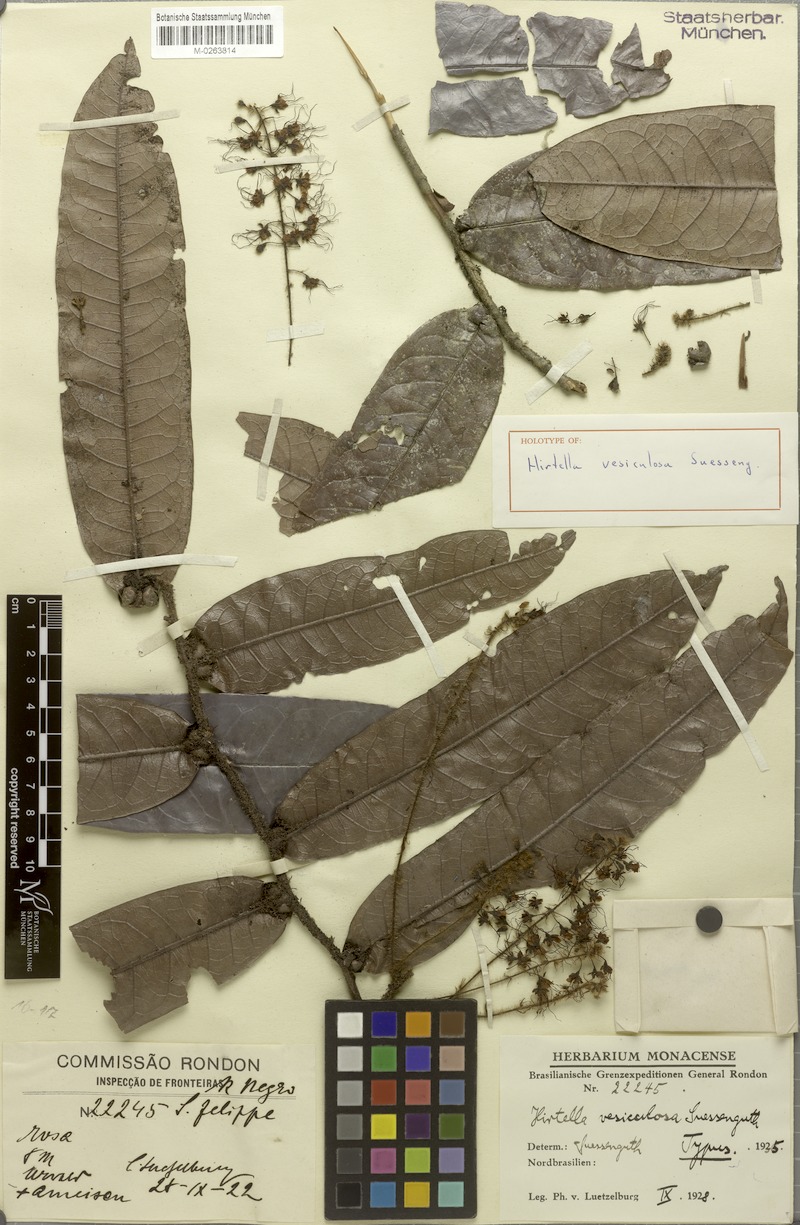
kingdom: Plantae
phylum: Tracheophyta
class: Magnoliopsida
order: Malpighiales
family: Chrysobalanaceae
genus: Hirtella
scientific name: Hirtella vesiculosa
